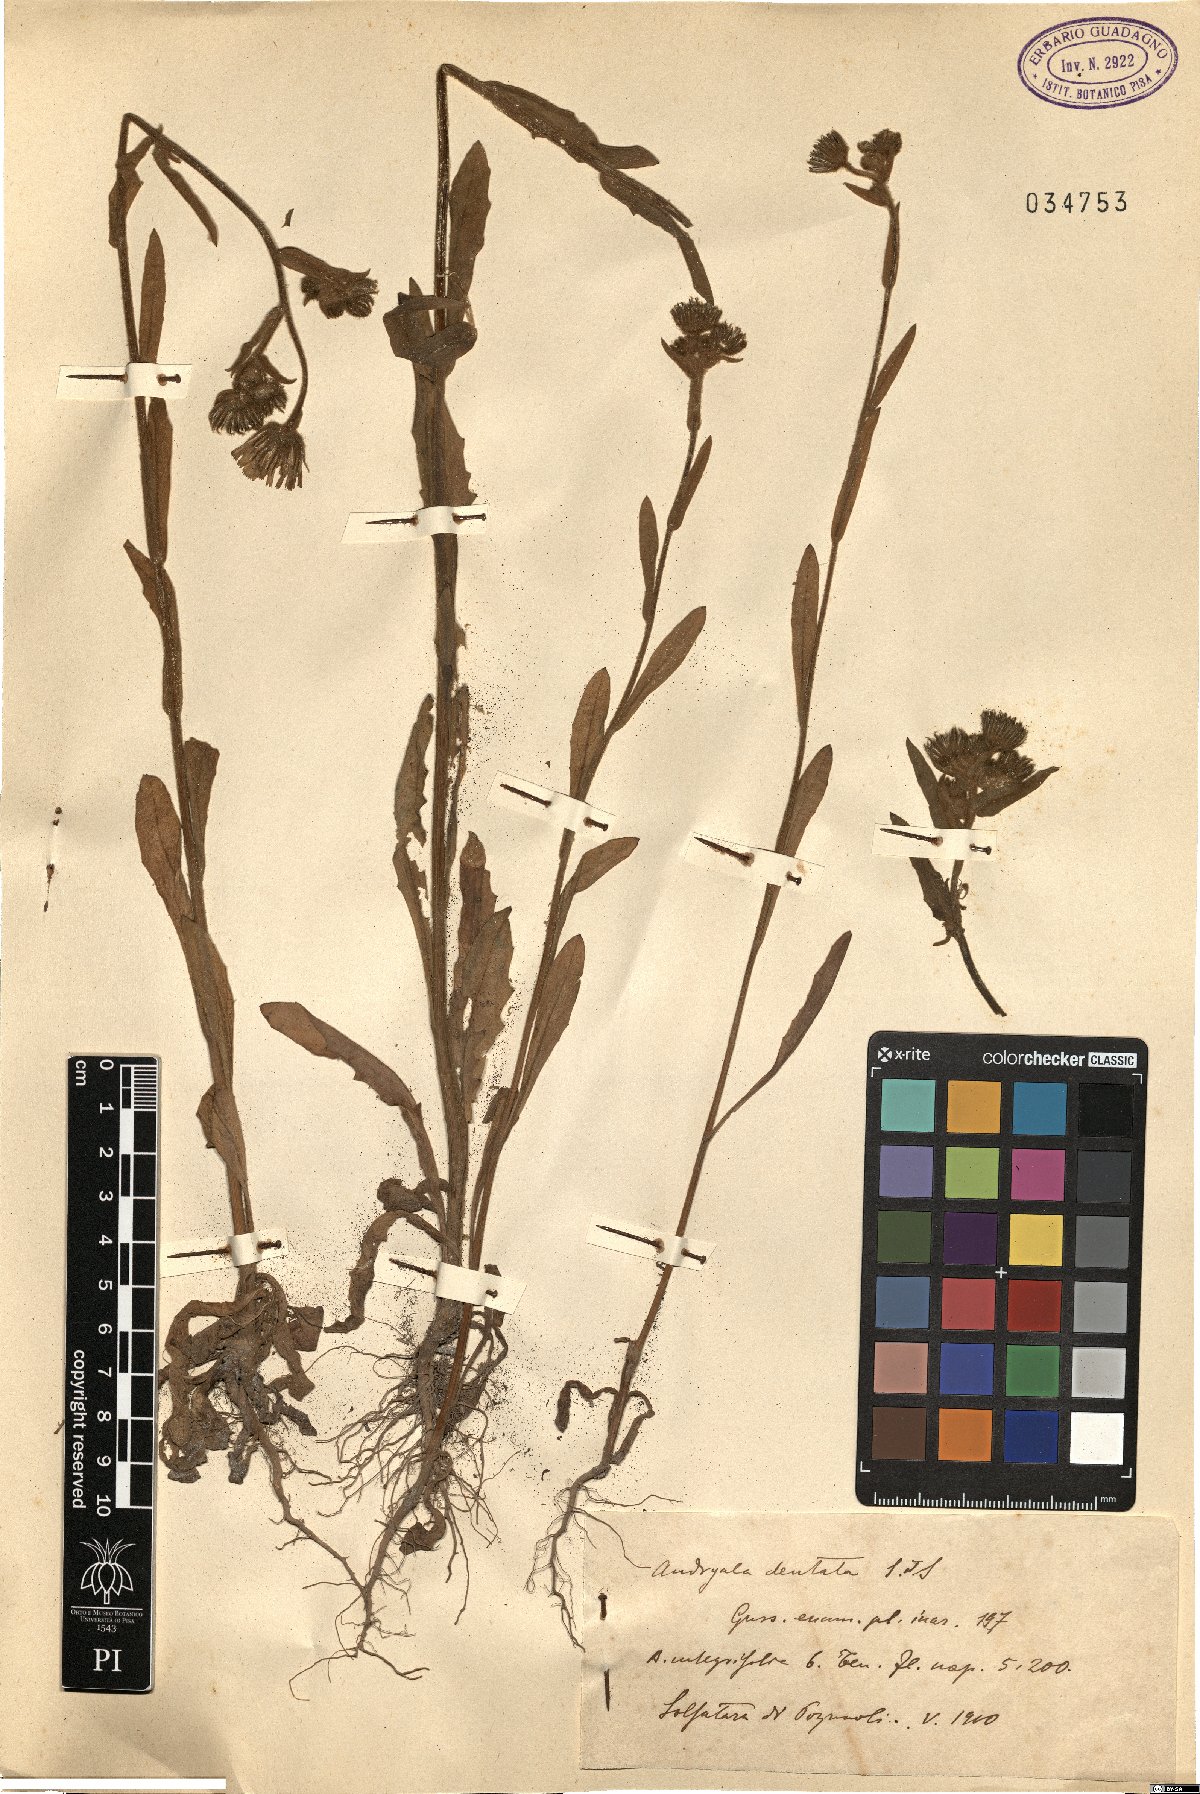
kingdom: Plantae
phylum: Tracheophyta
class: Magnoliopsida
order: Asterales
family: Asteraceae
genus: Andryala
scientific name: Andryala dentata
